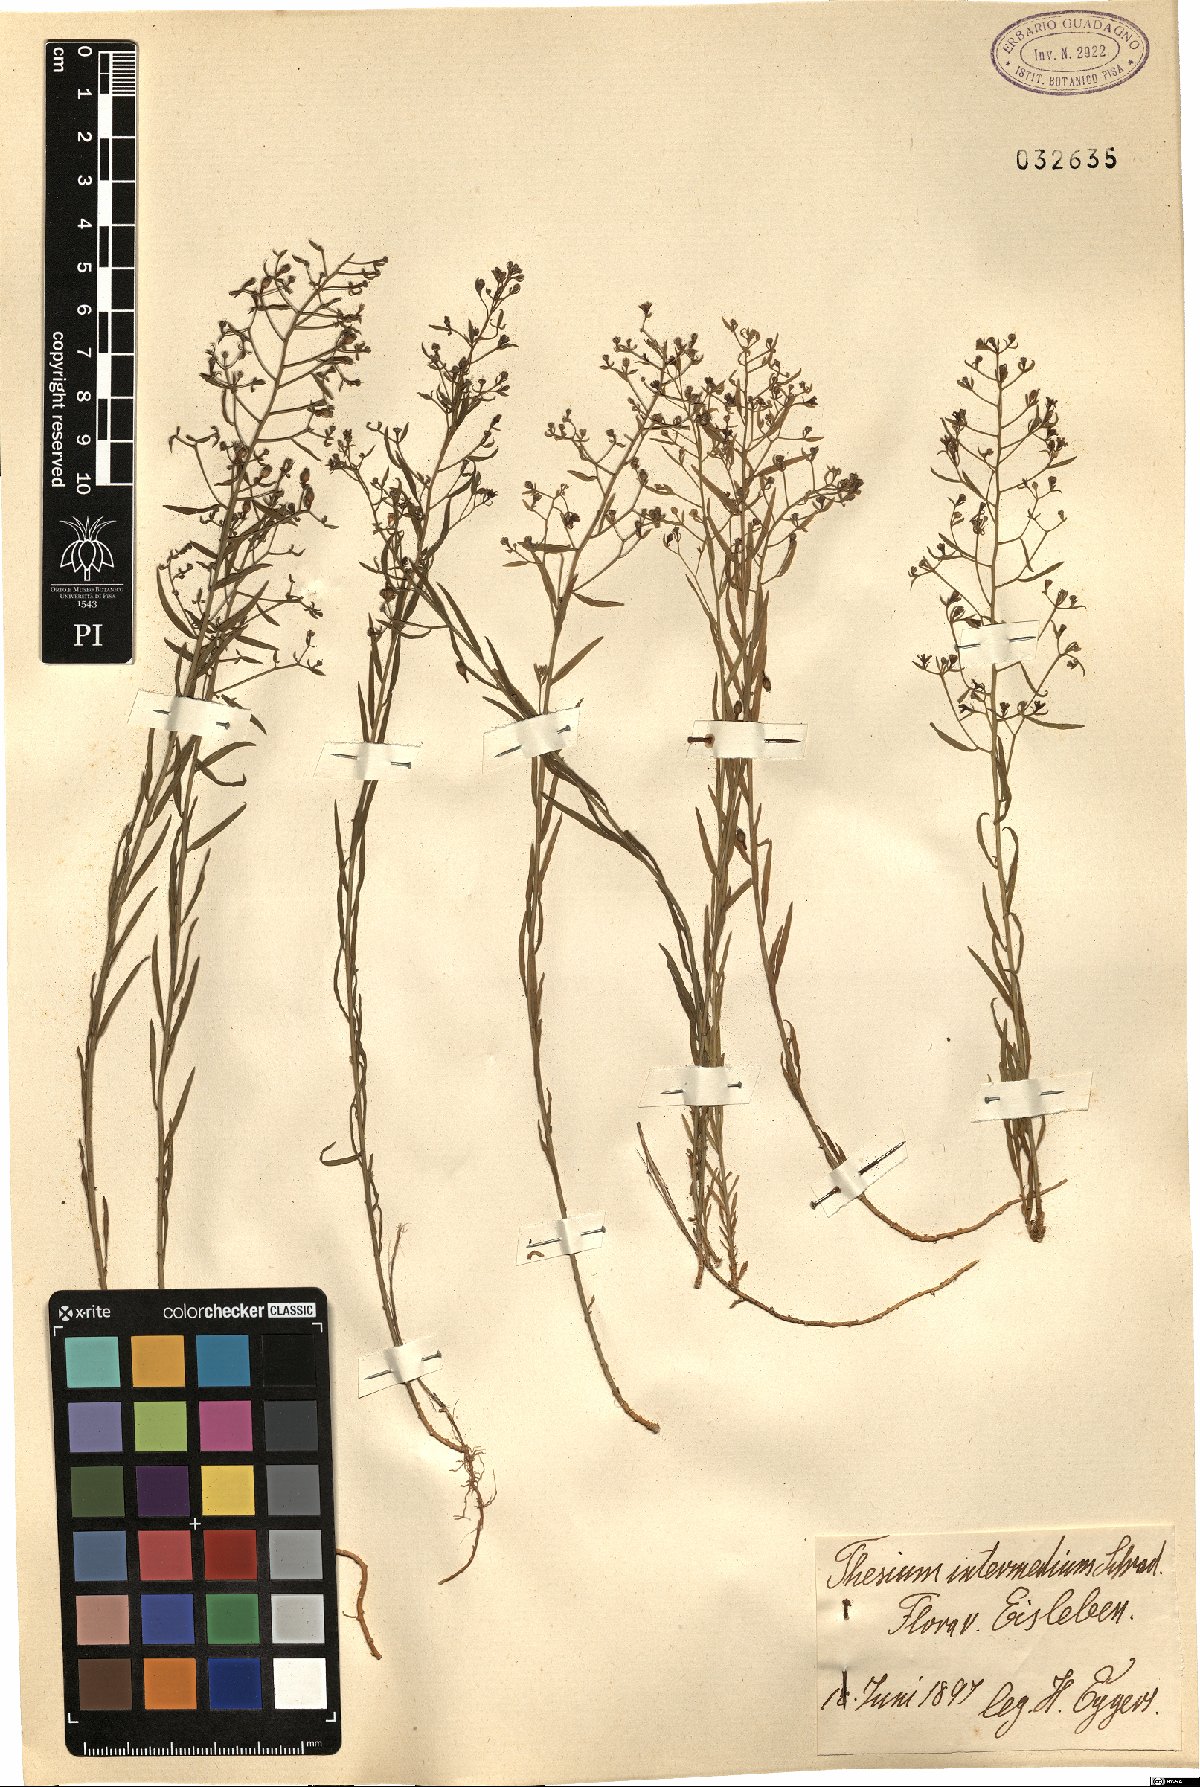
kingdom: Plantae
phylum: Tracheophyta
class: Magnoliopsida
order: Santalales
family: Thesiaceae
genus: Thesium
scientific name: Thesium linophyllon
